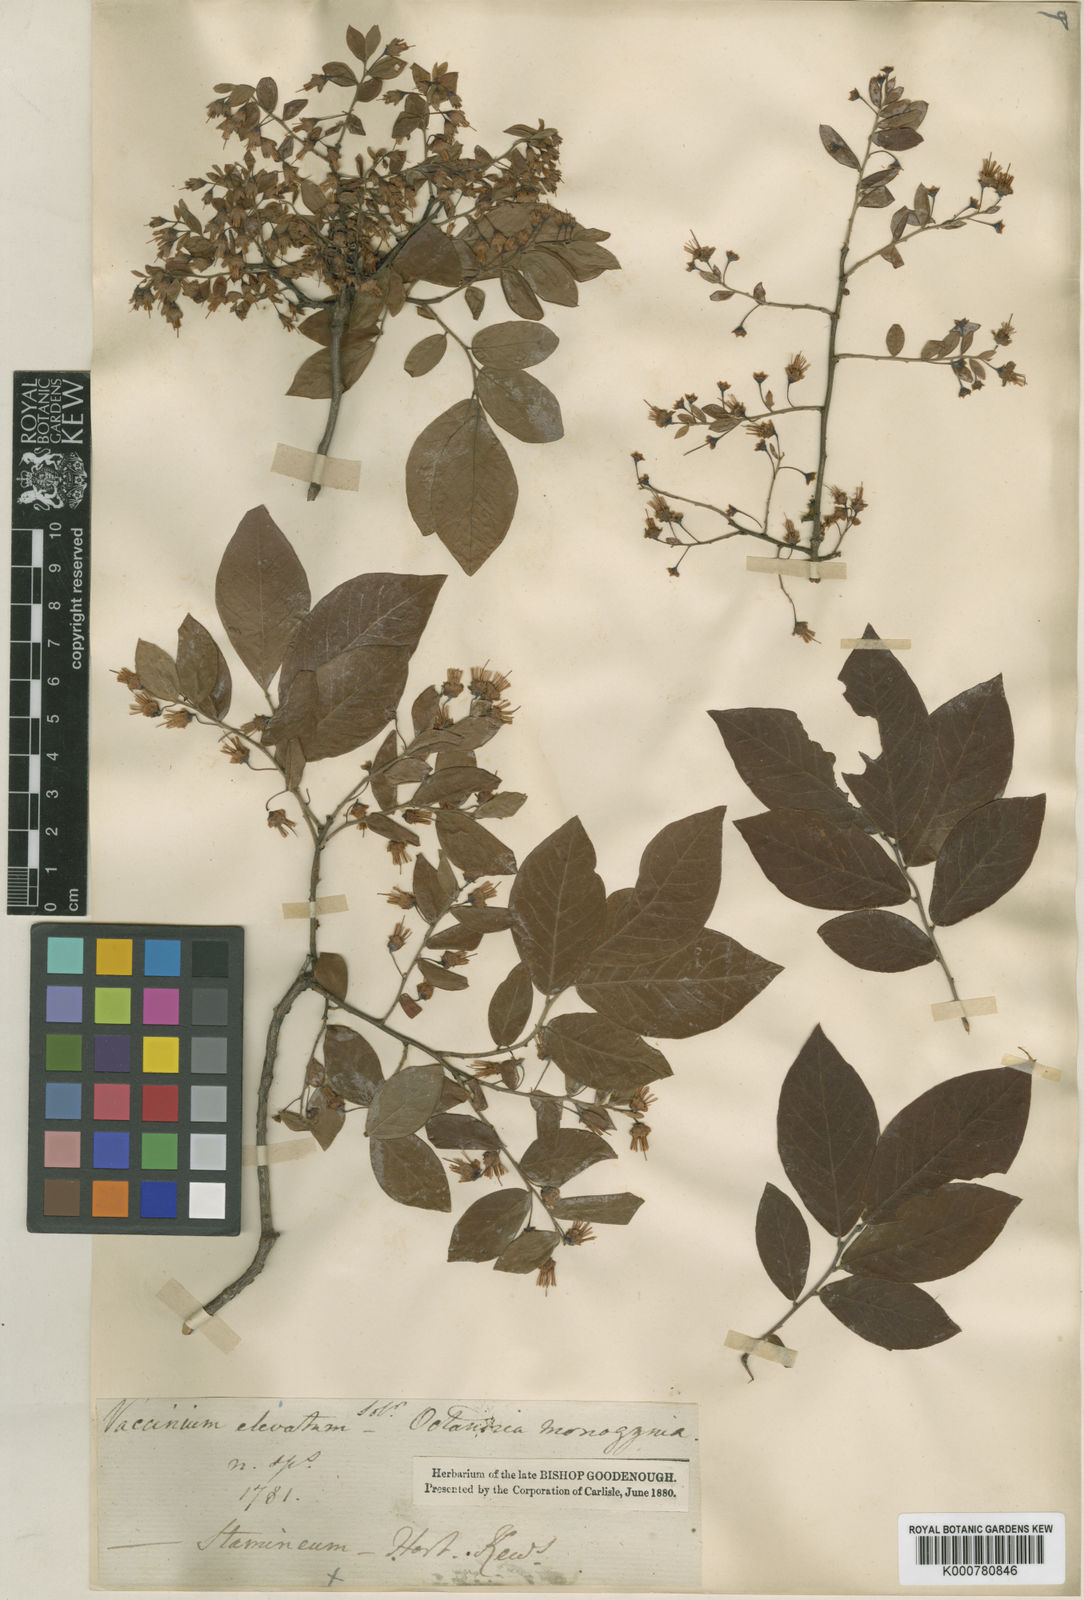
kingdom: Plantae
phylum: Tracheophyta
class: Magnoliopsida
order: Ericales
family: Ericaceae
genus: Vaccinium
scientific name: Vaccinium stamineum
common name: Deerberry
